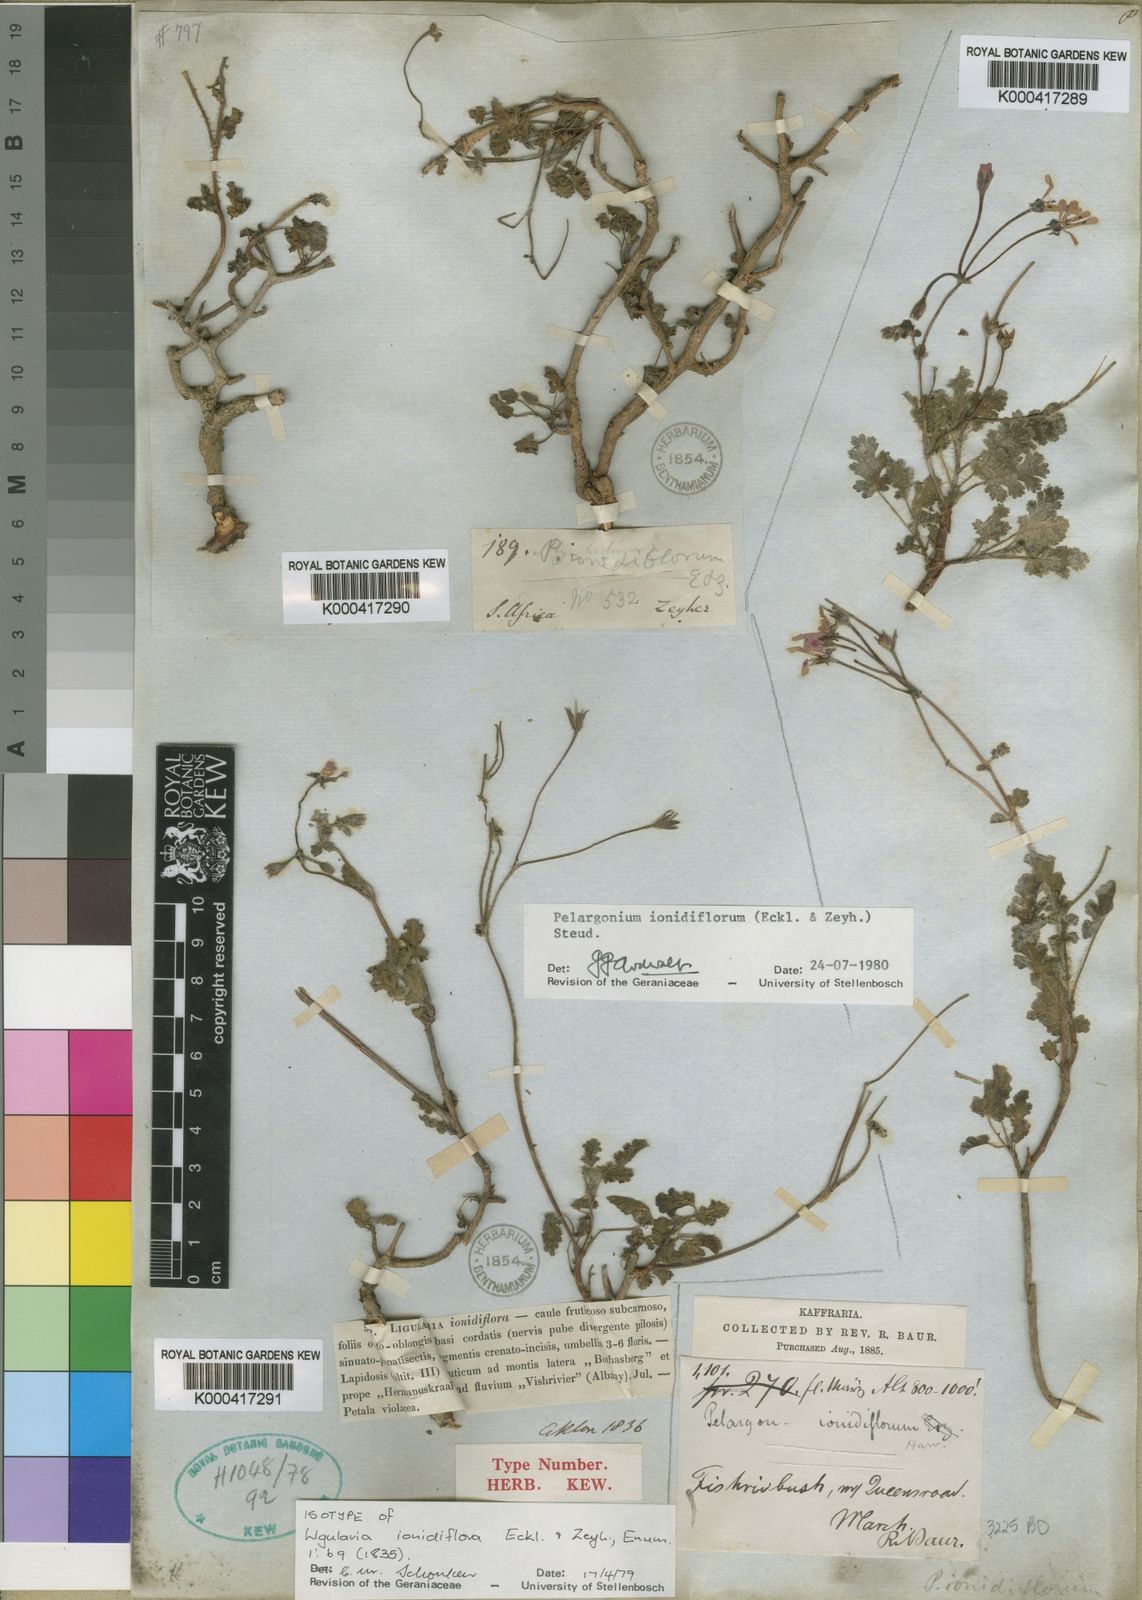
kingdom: Plantae
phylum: Tracheophyta
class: Magnoliopsida
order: Geraniales
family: Geraniaceae
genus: Pelargonium
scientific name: Pelargonium ionidiflorum
